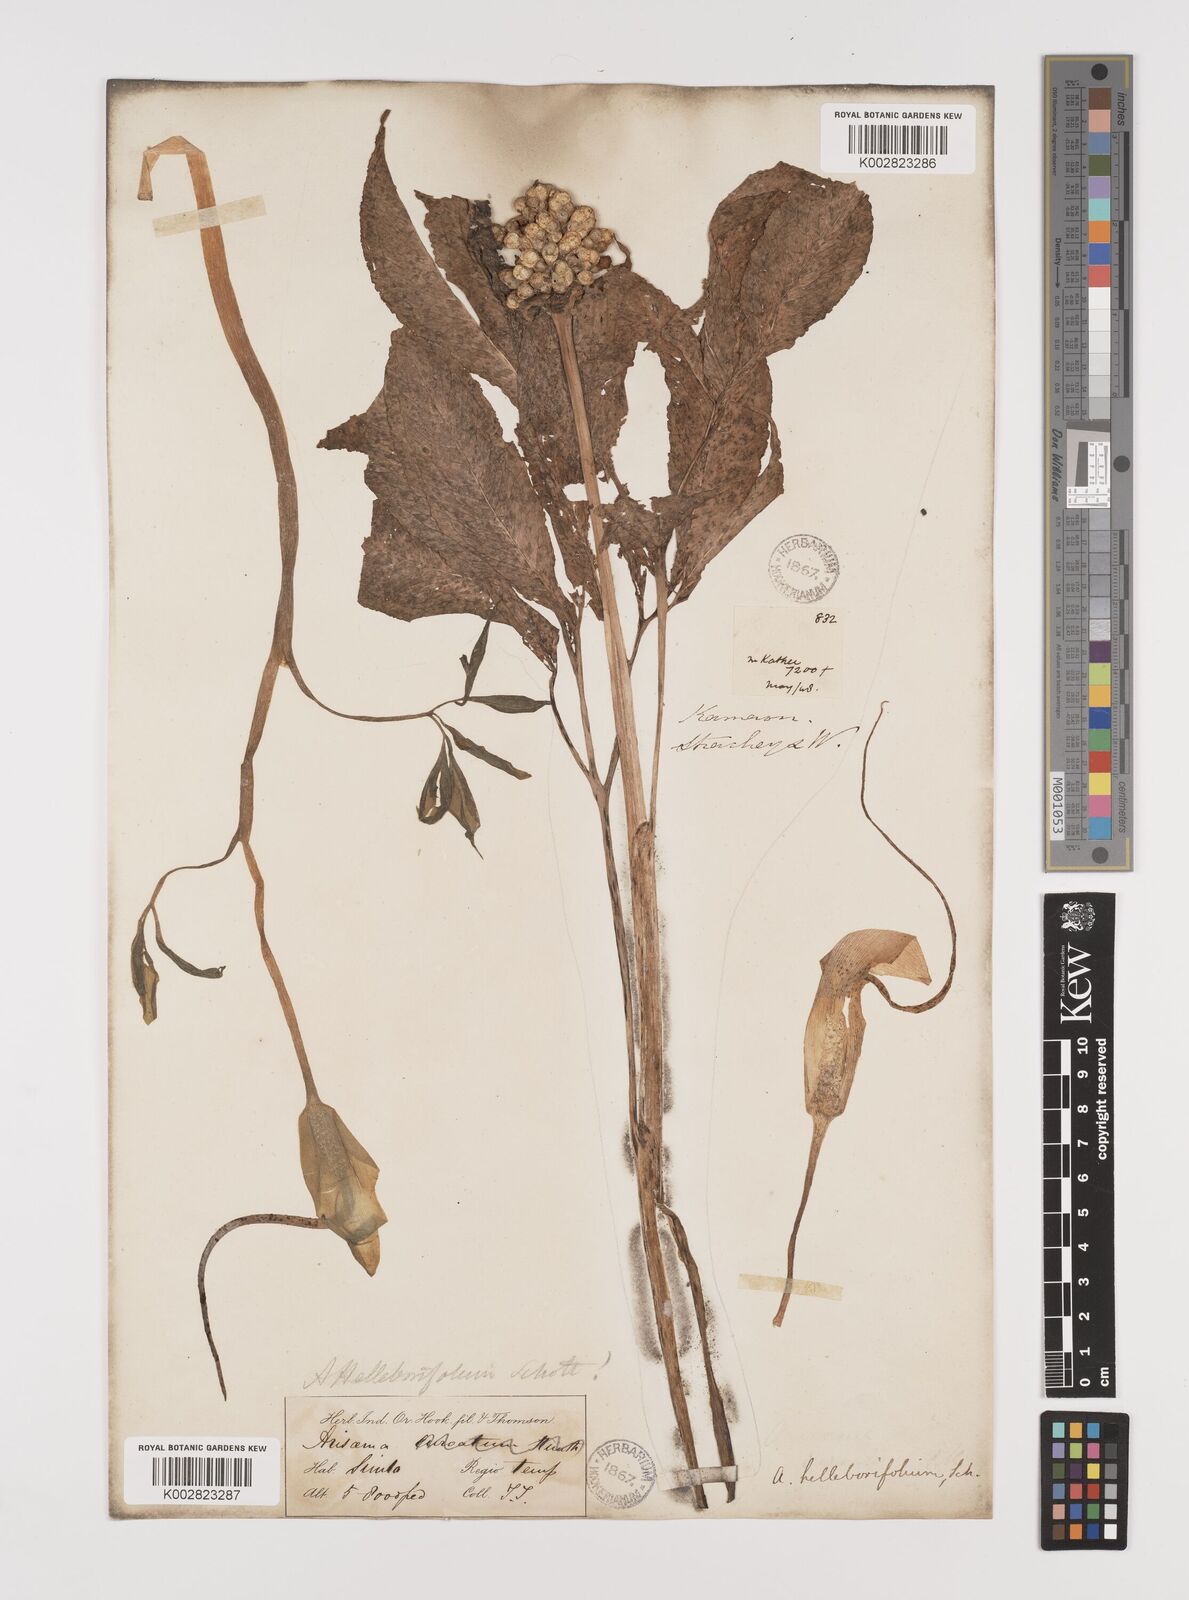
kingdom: Plantae
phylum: Tracheophyta
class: Liliopsida
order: Alismatales
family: Araceae
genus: Arisaema
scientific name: Arisaema tortuosum
